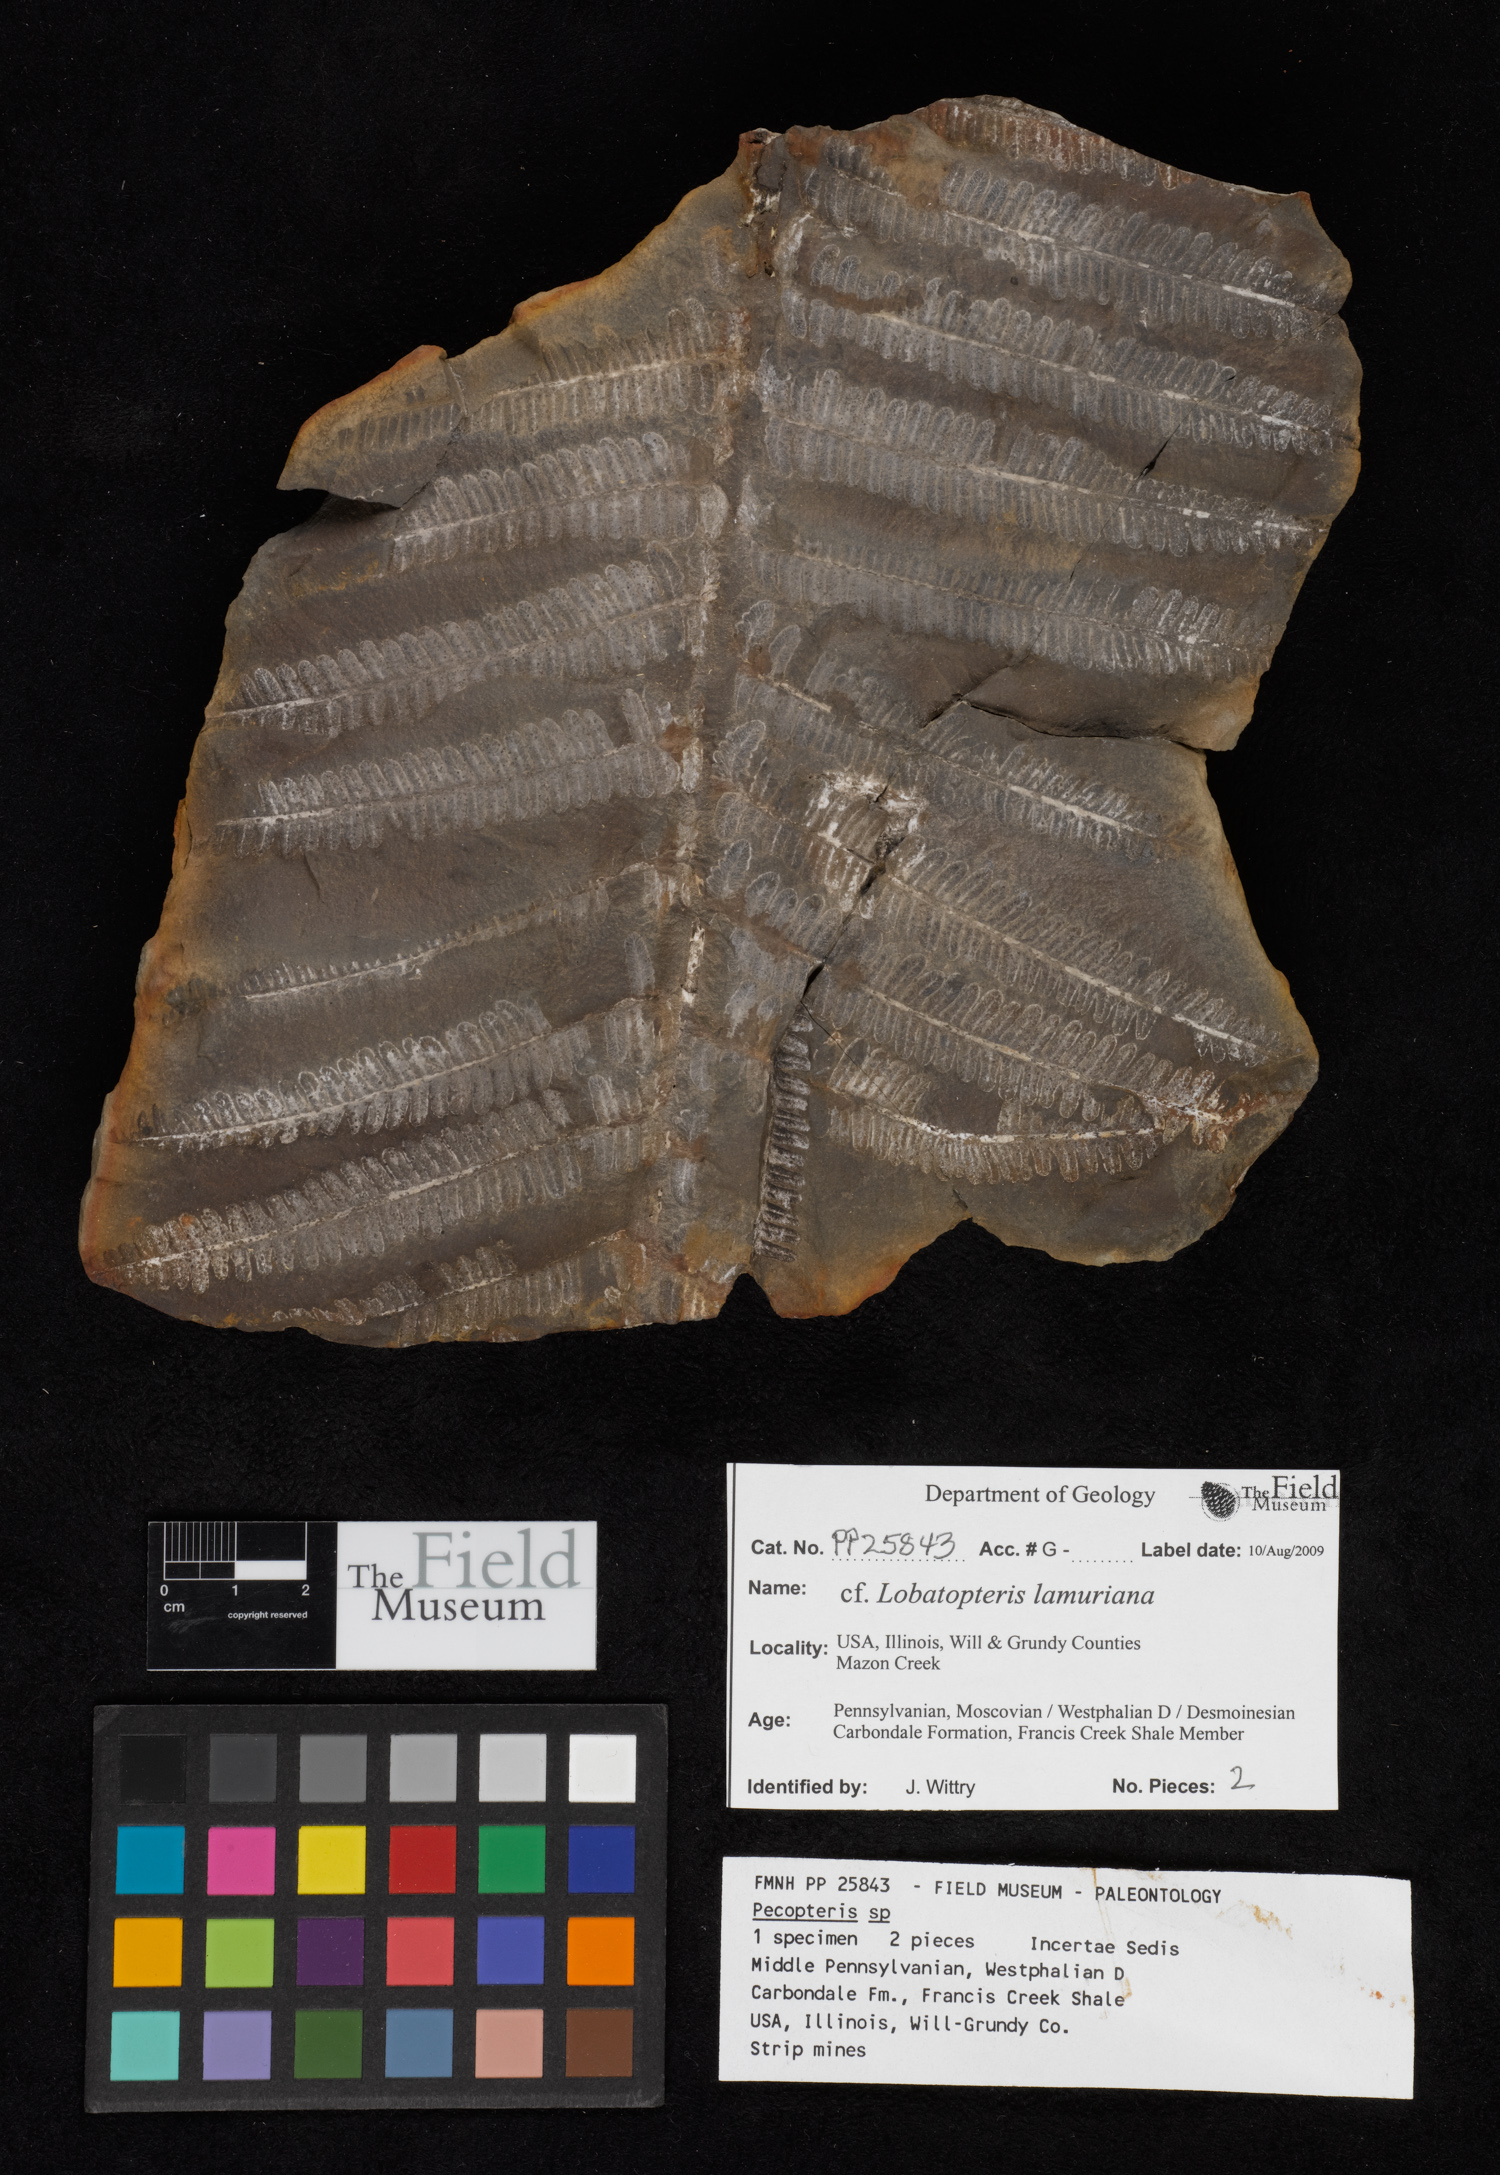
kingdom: Plantae
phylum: Tracheophyta
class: Polypodiopsida
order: Marattiales
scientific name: Marattiales
